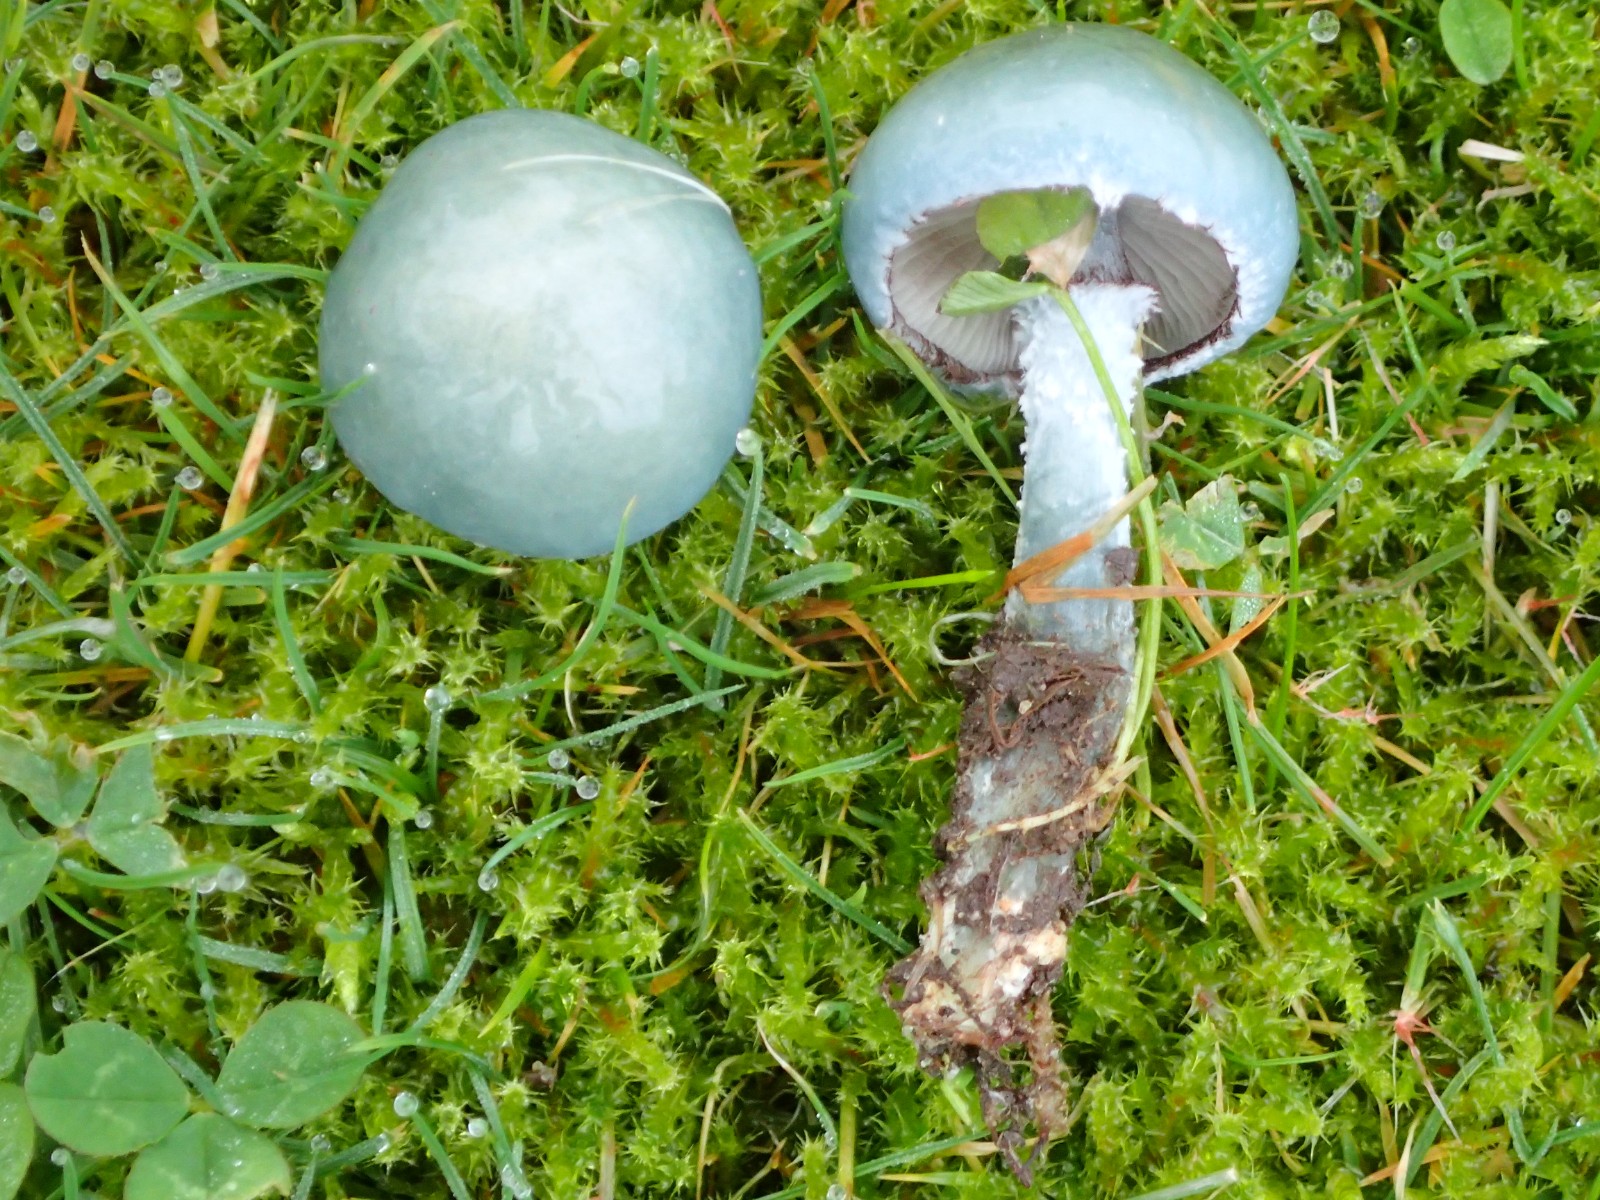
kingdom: Fungi
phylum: Basidiomycota
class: Agaricomycetes
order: Agaricales
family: Strophariaceae
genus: Stropharia
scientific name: Stropharia cyanea
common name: blågrøn bredblad
